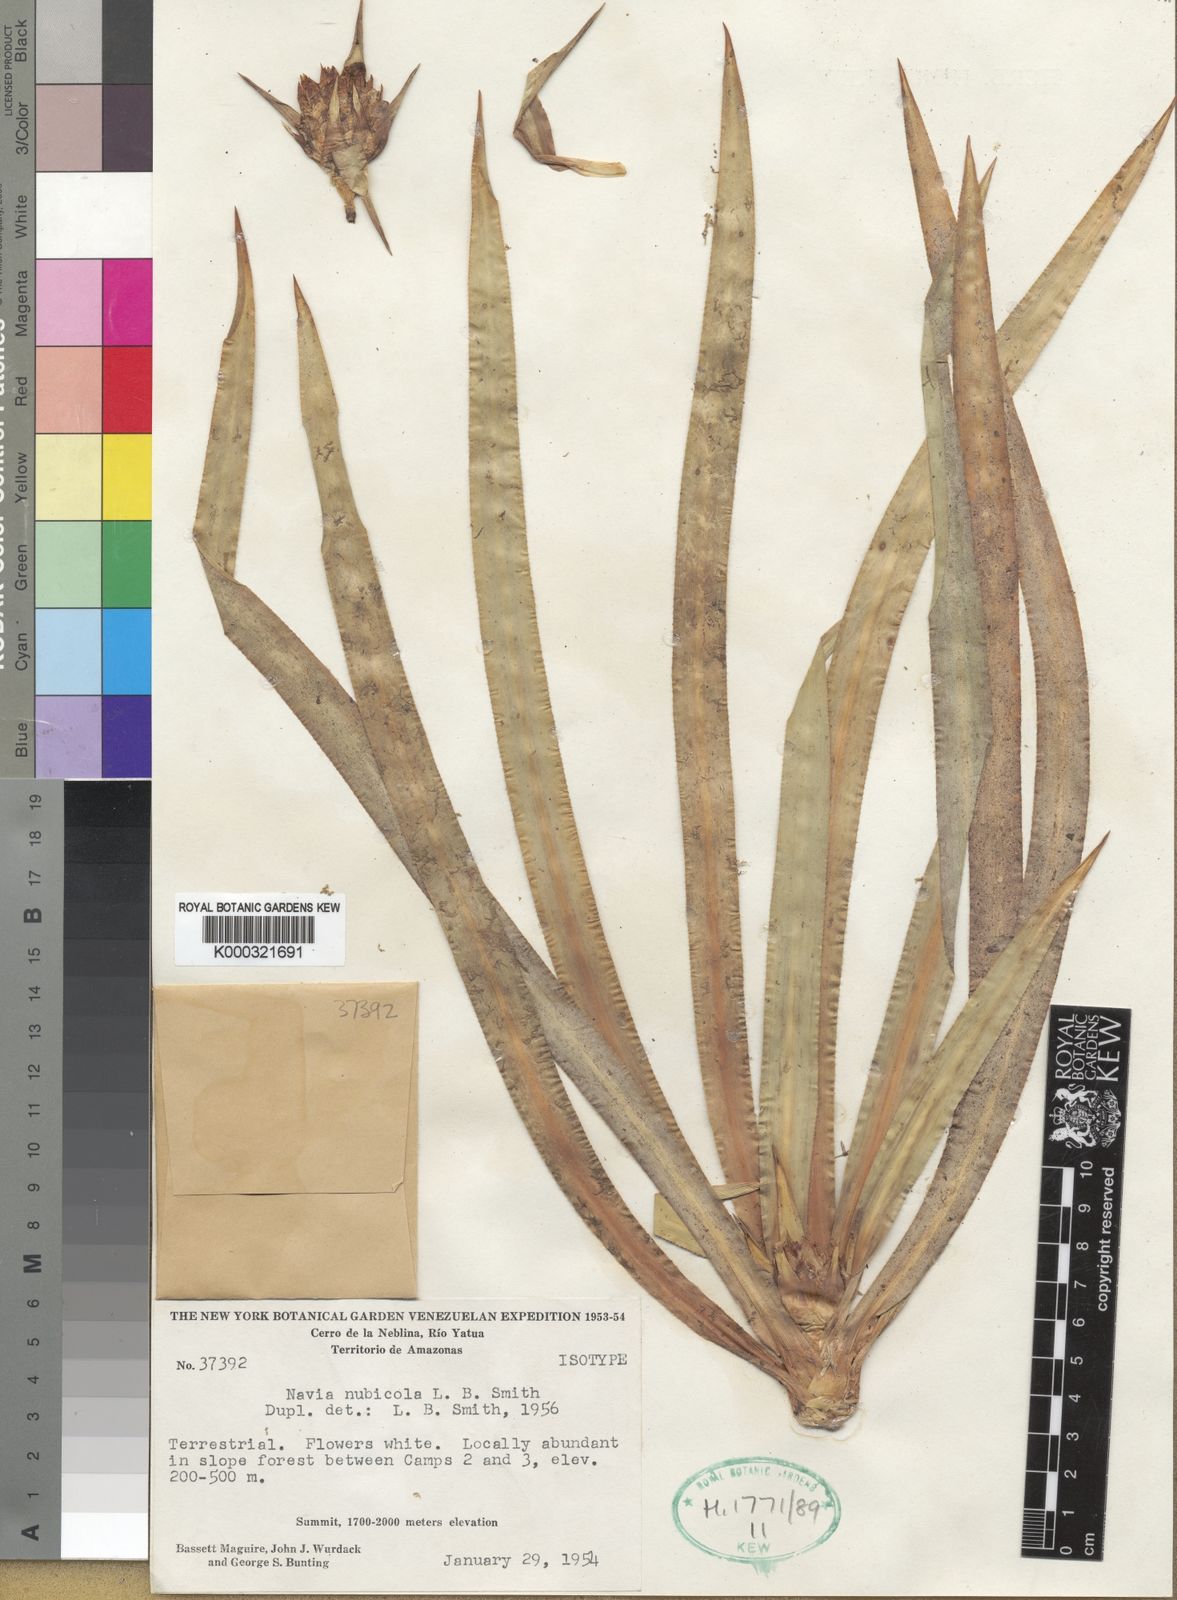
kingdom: Plantae
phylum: Tracheophyta
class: Liliopsida
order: Poales
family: Bromeliaceae
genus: Navia
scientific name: Navia nubicola
